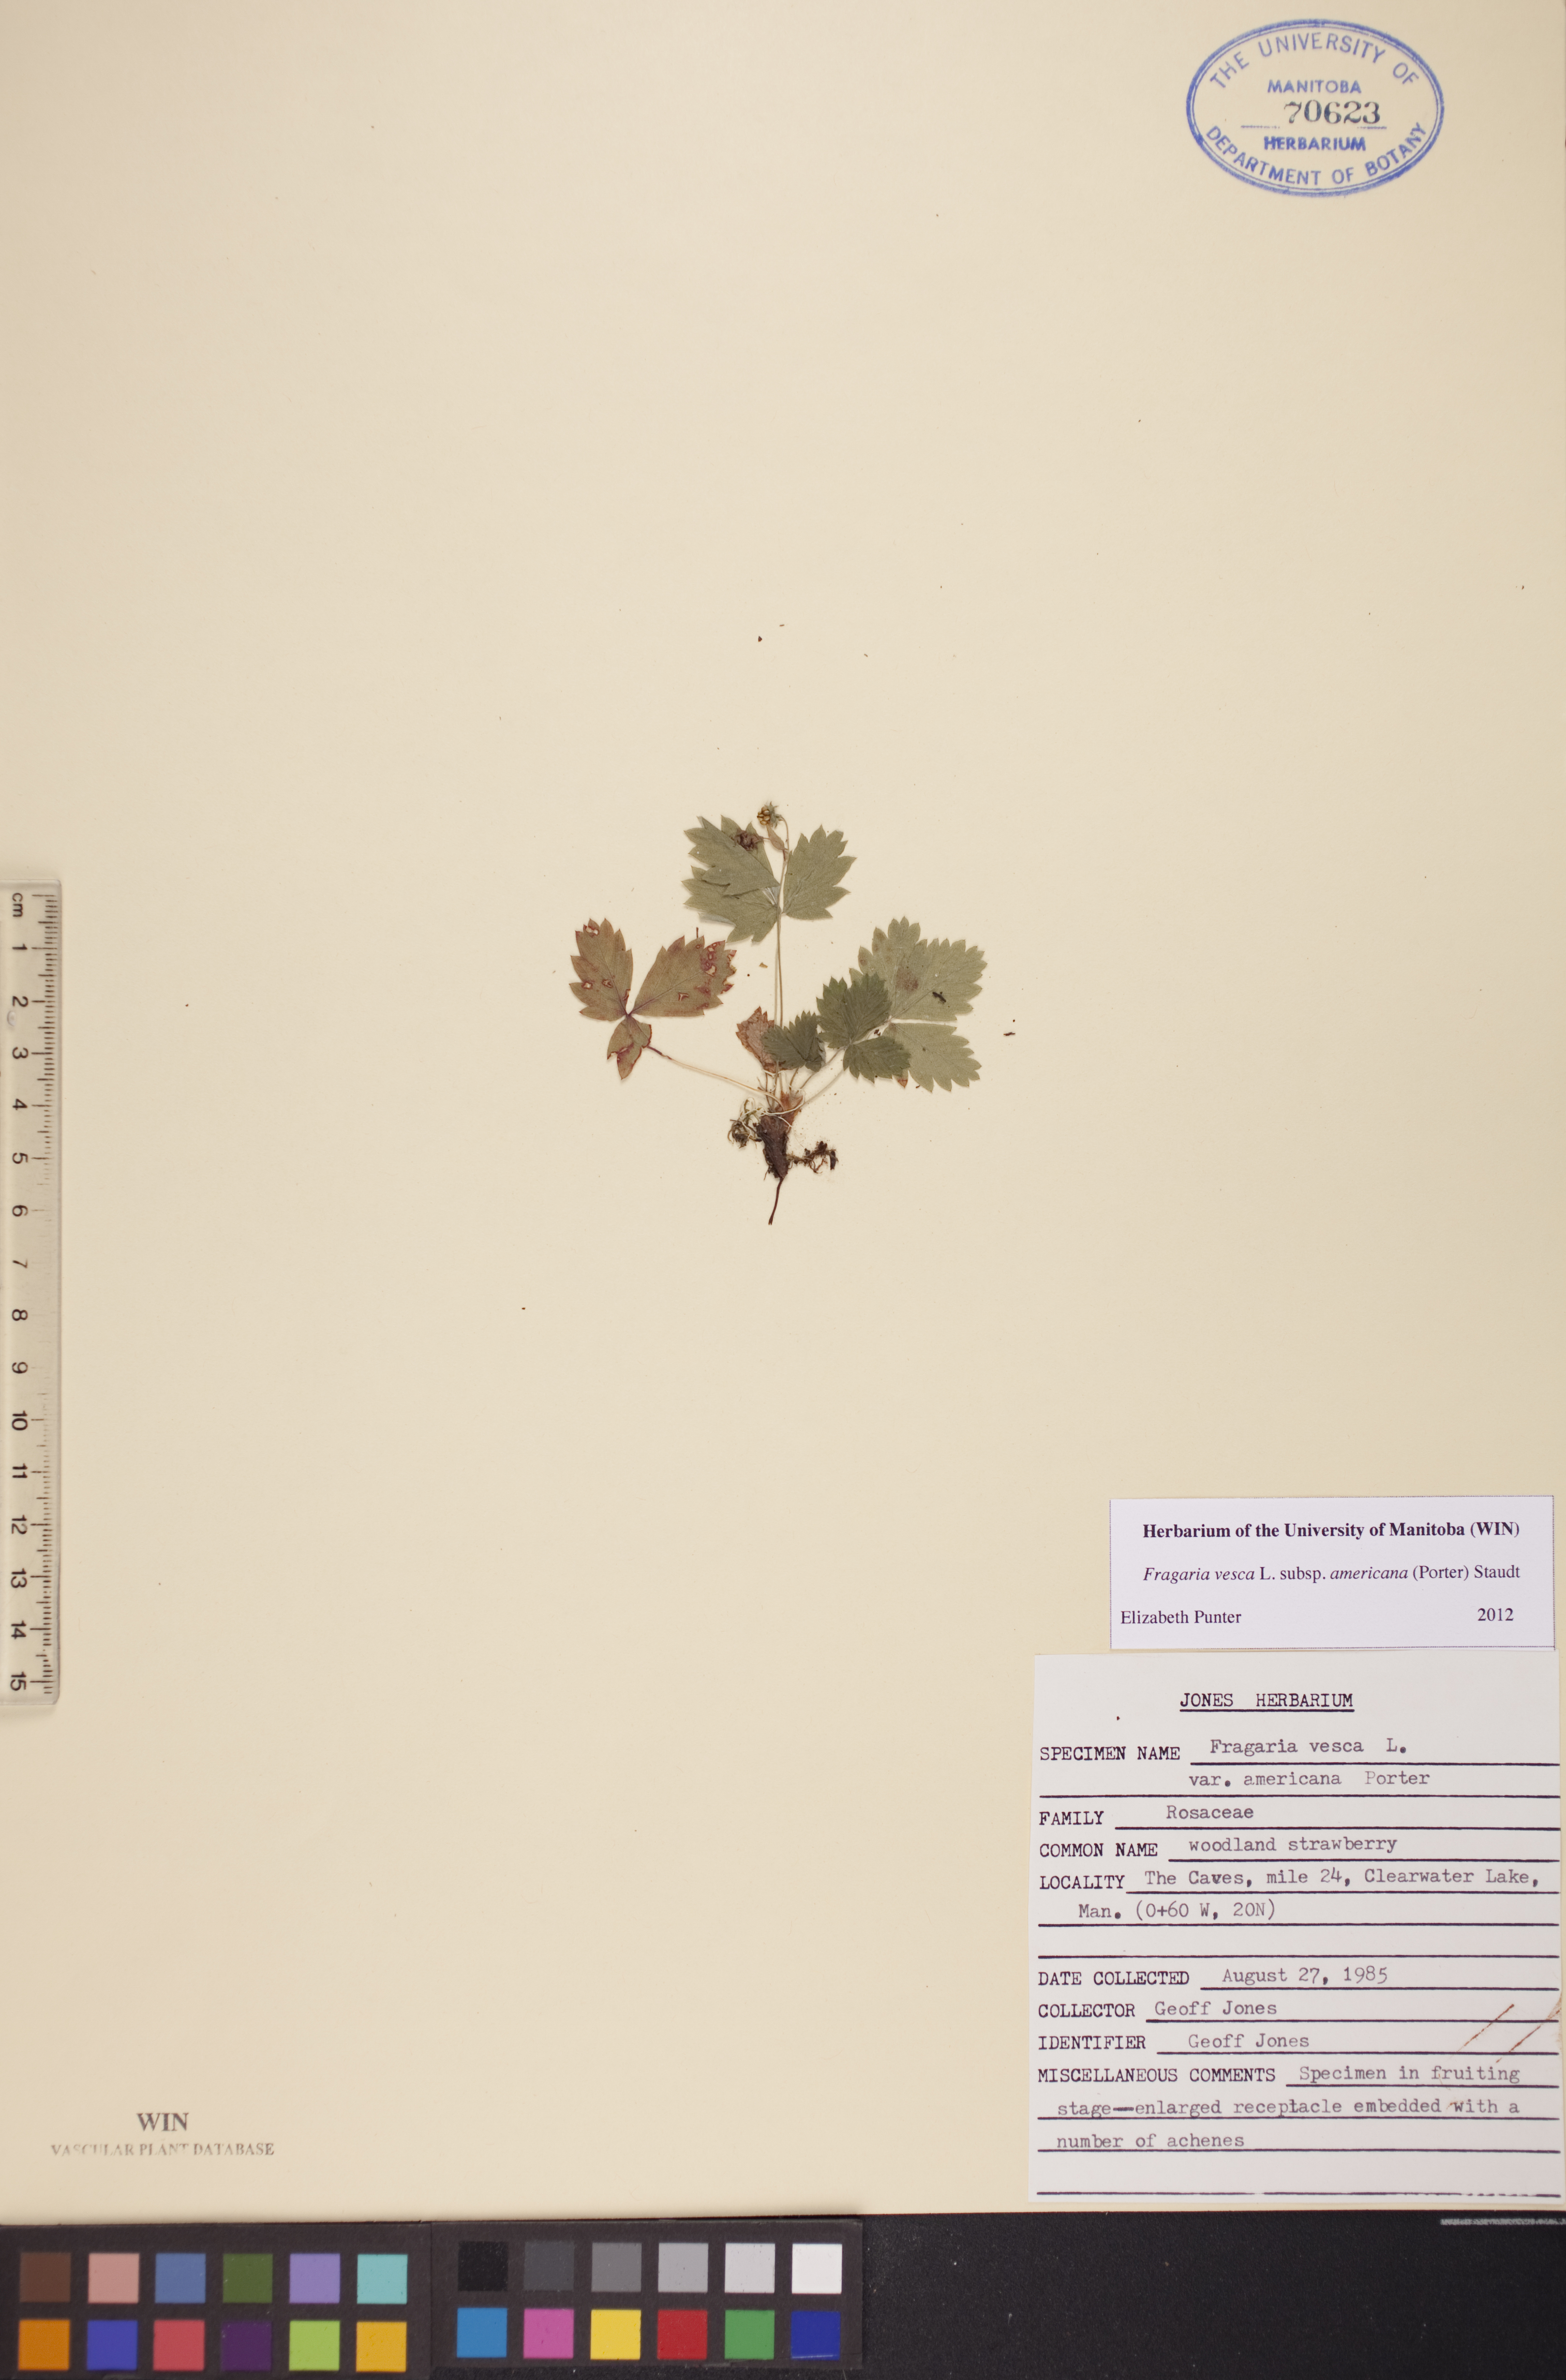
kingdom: Plantae
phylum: Tracheophyta
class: Magnoliopsida
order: Rosales
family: Rosaceae
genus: Fragaria
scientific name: Fragaria vesca
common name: Wild strawberry
